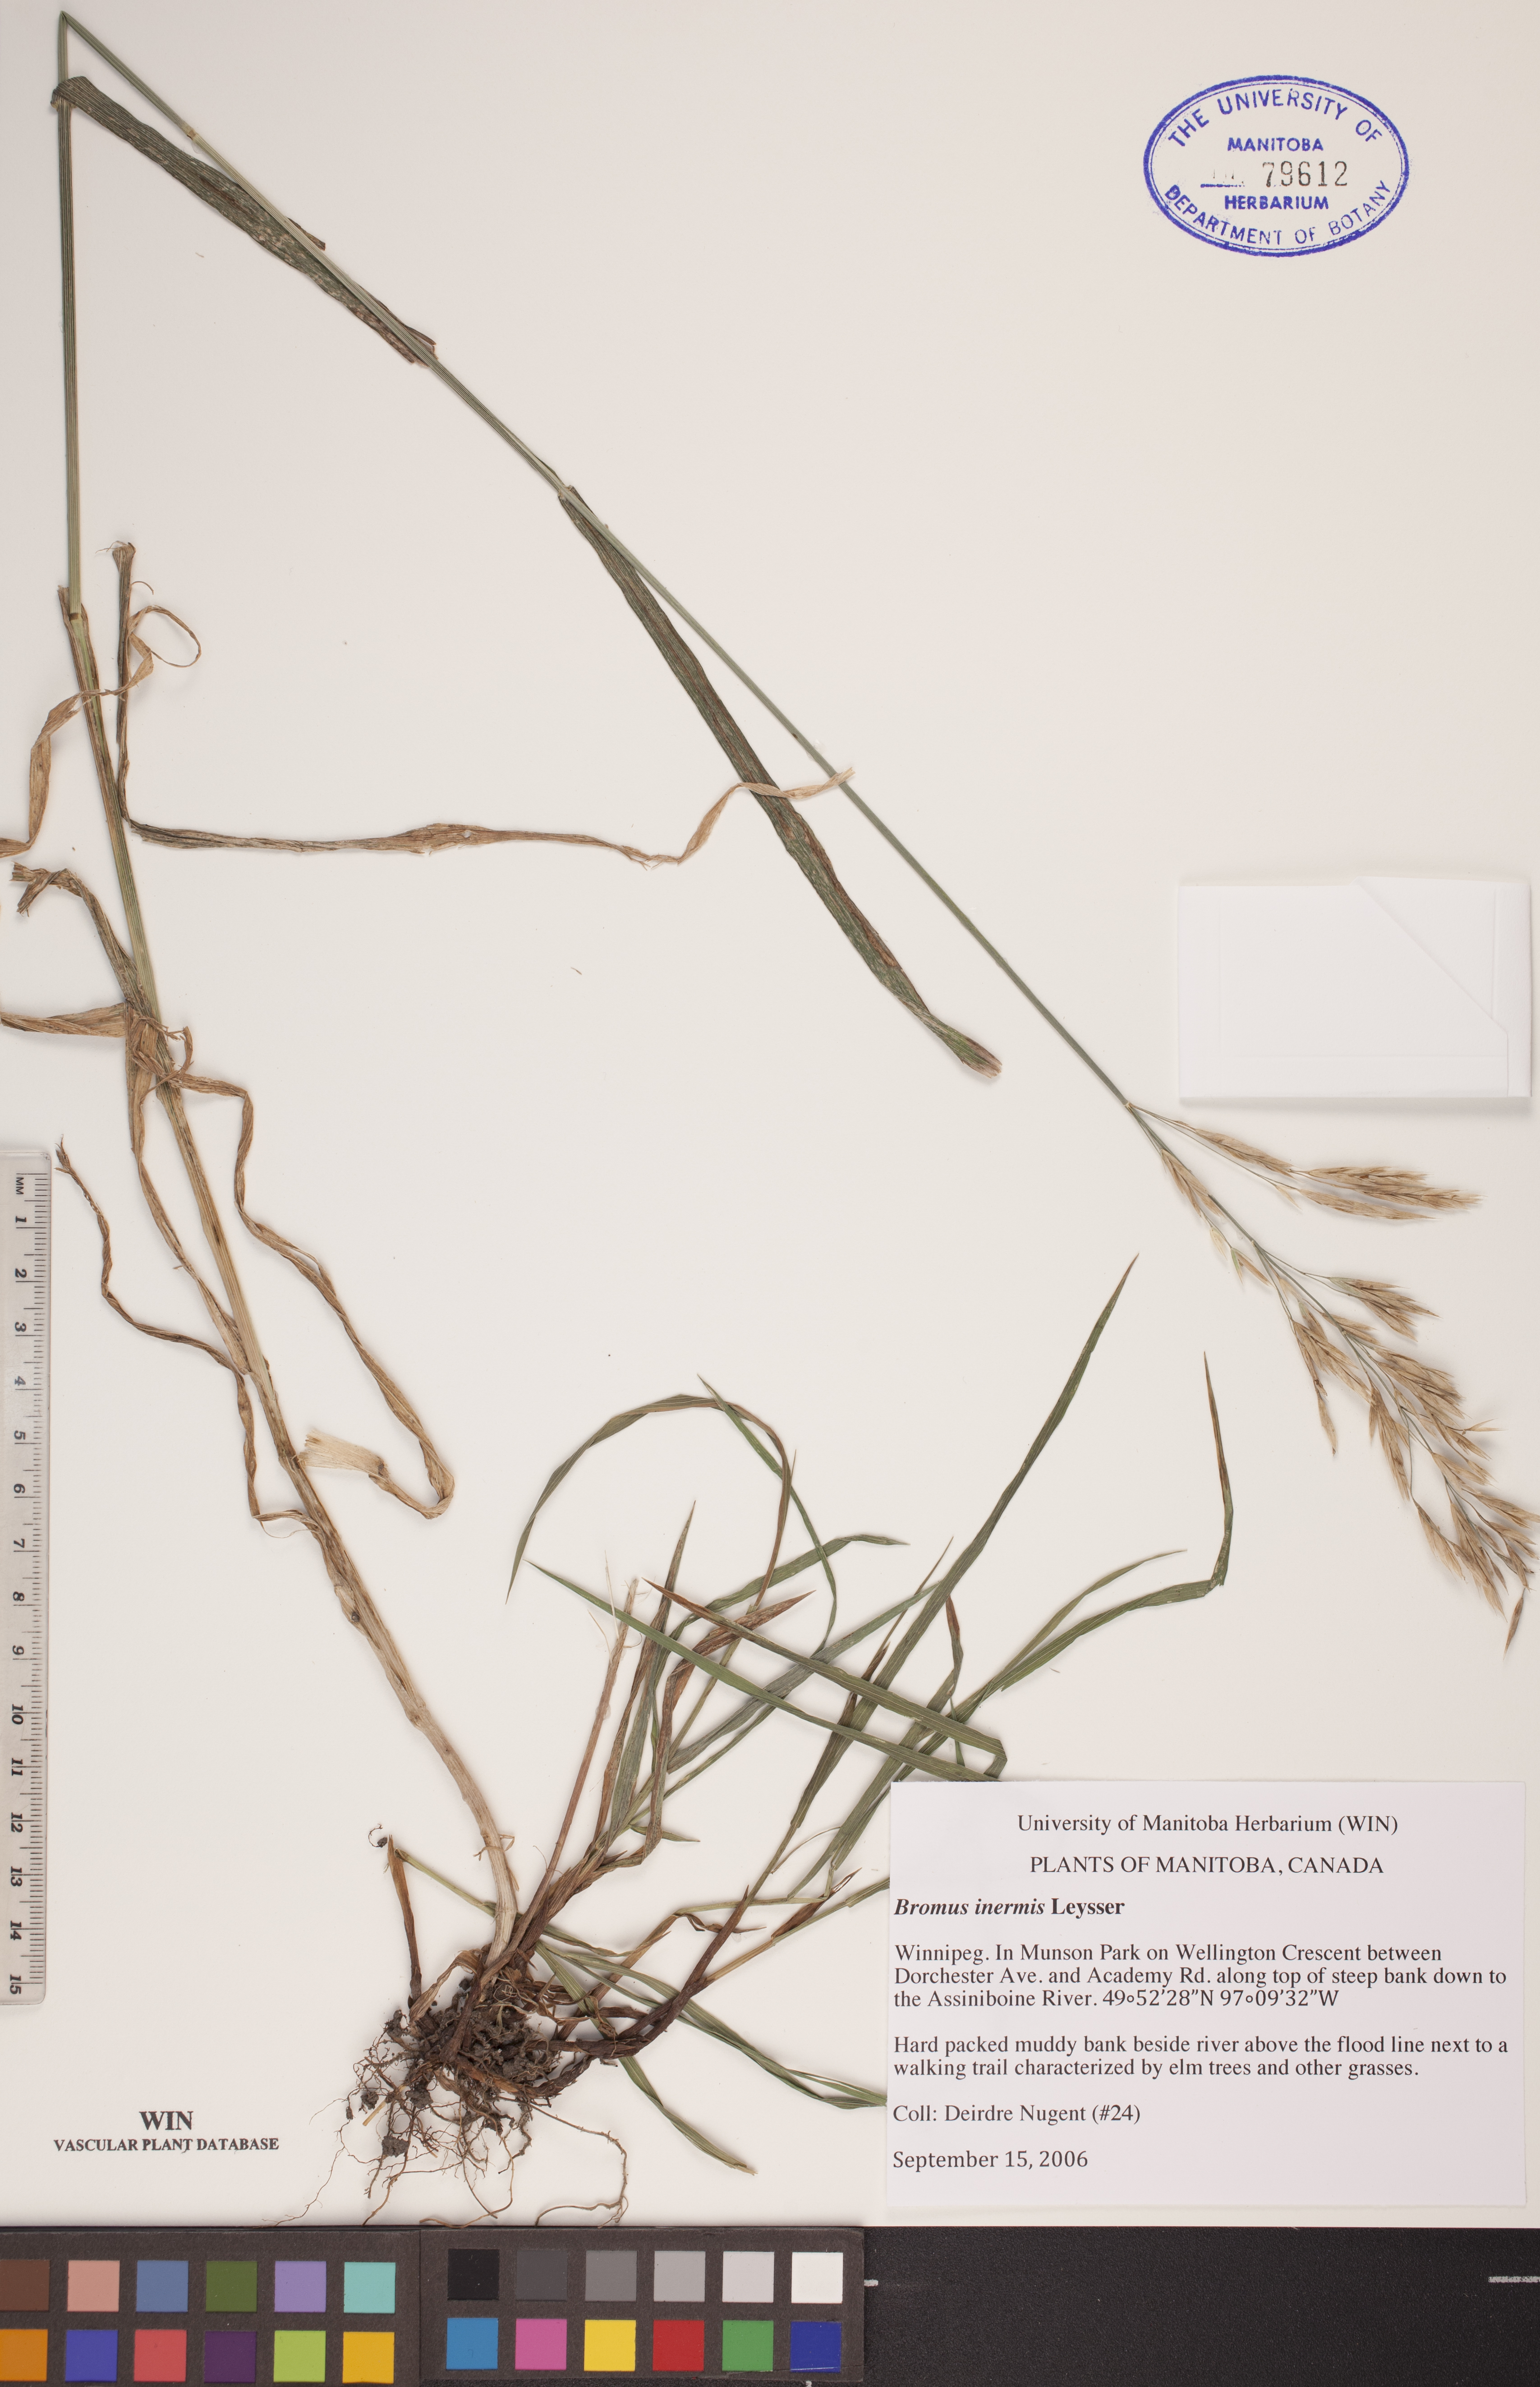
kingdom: Plantae
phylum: Tracheophyta
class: Liliopsida
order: Poales
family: Poaceae
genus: Bromus
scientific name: Bromus inermis
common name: Smooth brome
